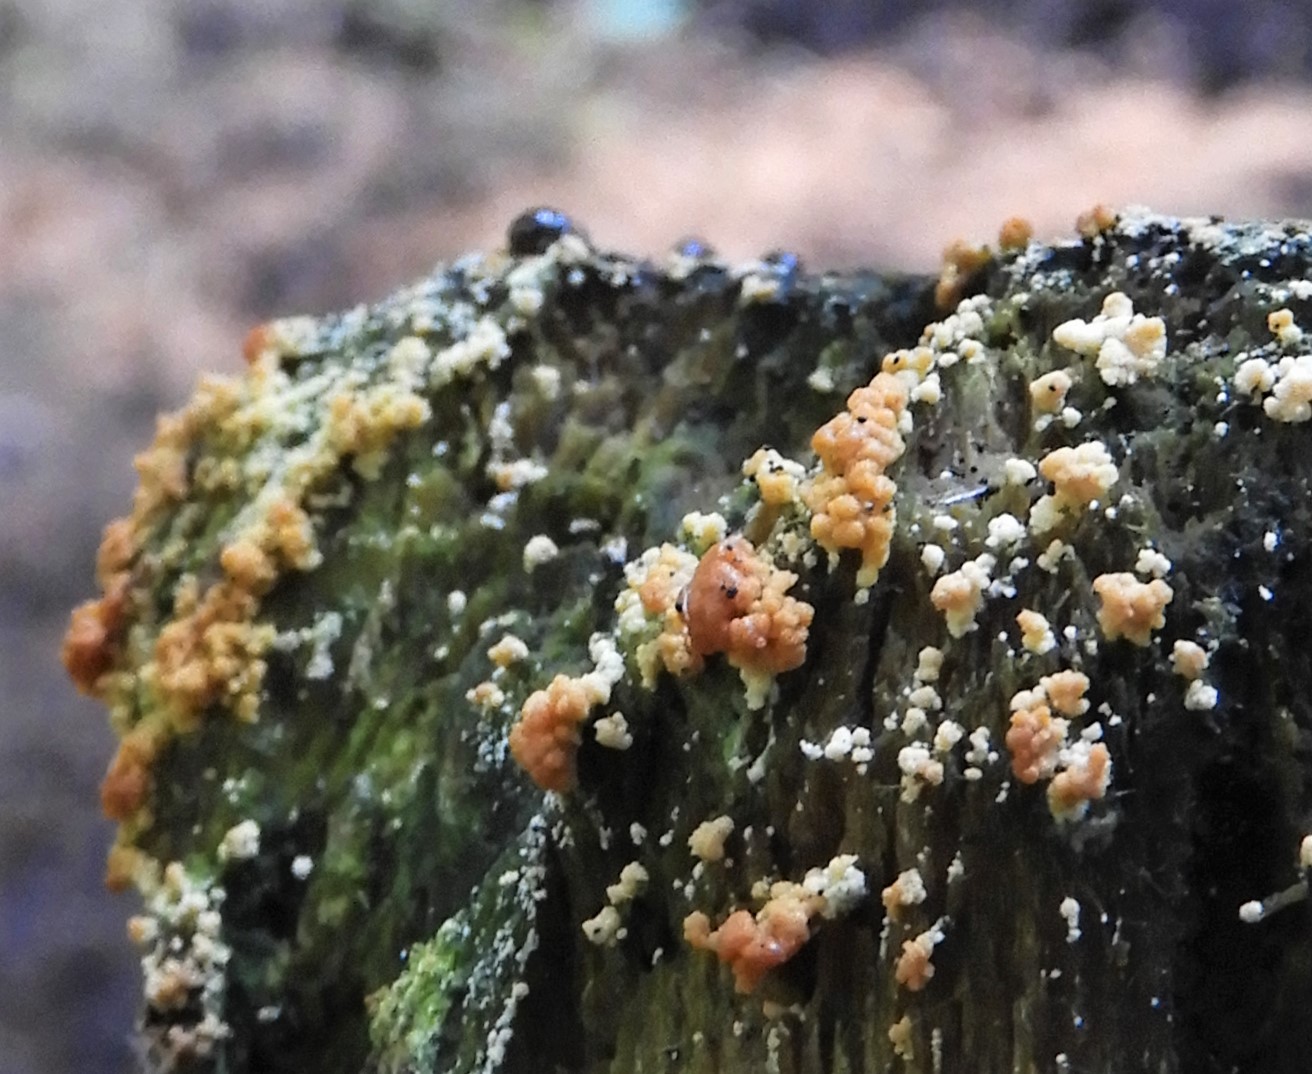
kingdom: Fungi
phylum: Ascomycota
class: Sordariomycetes
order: Hypocreales
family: Hypocreaceae
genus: Trichoderma
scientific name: Trichoderma
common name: kødkerne
